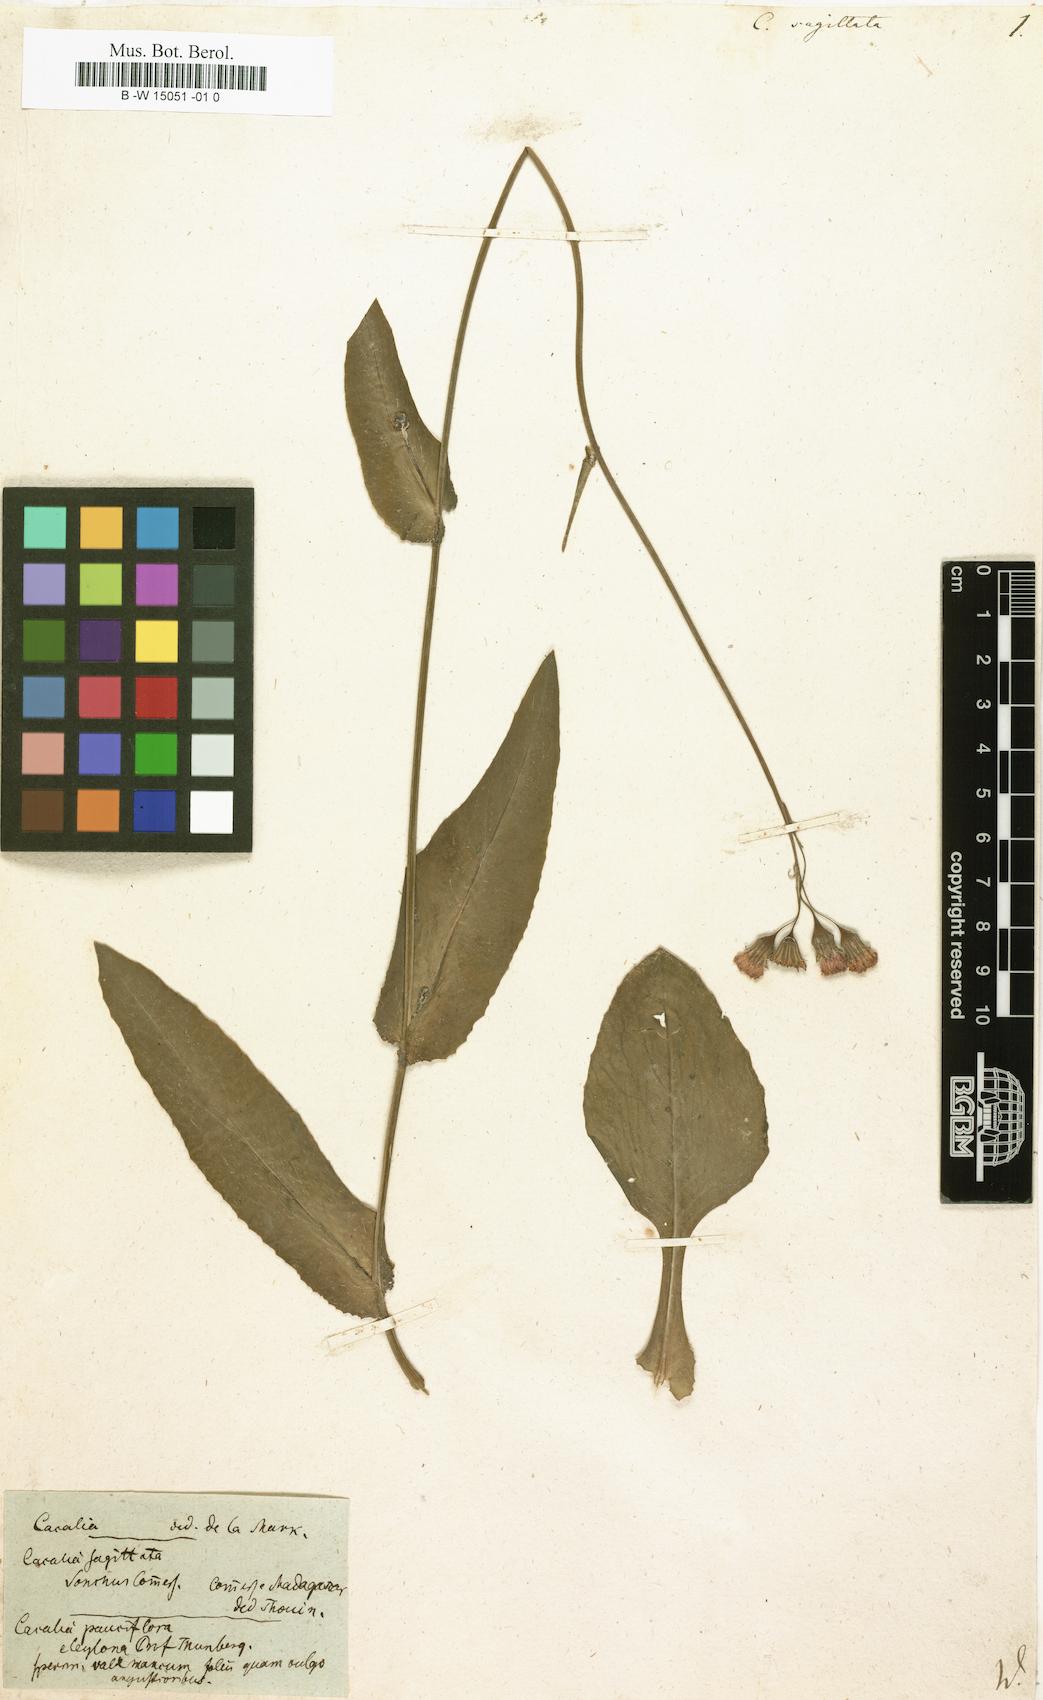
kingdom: Plantae
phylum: Tracheophyta
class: Magnoliopsida
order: Asterales
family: Asteraceae
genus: Emilia
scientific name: Emilia
